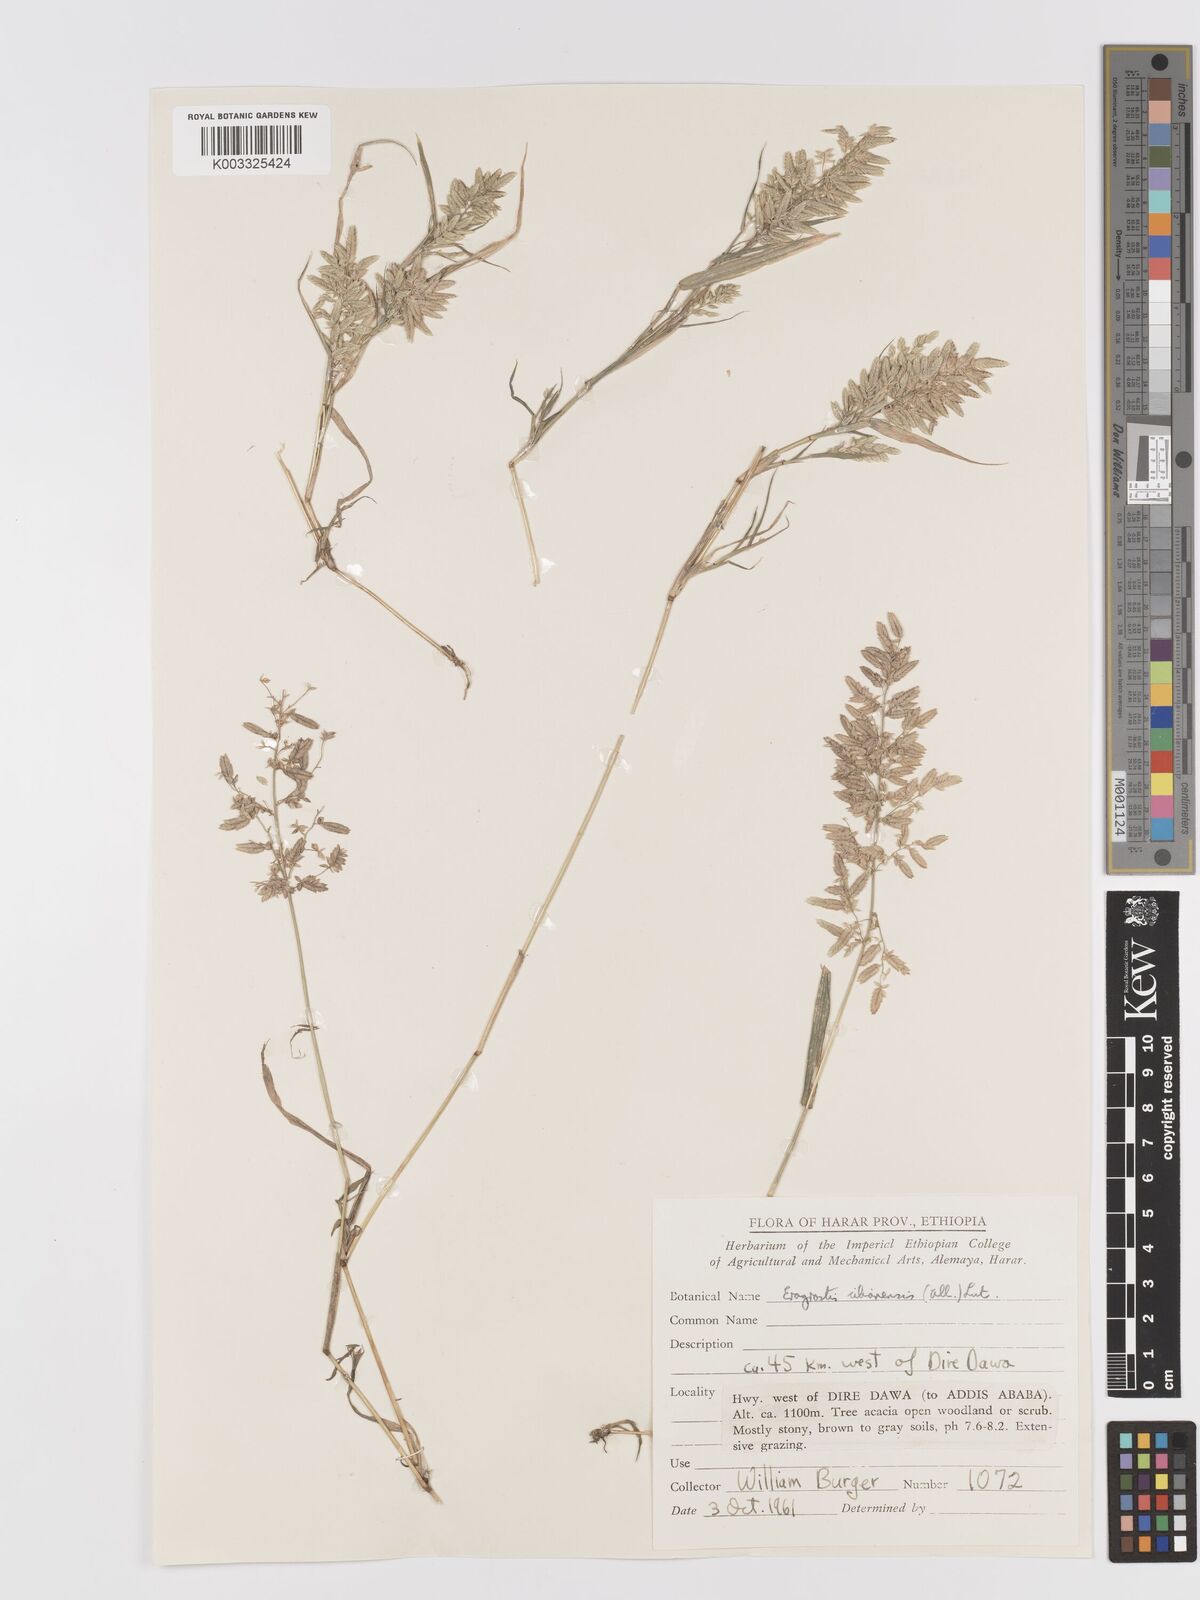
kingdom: Plantae
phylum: Tracheophyta
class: Liliopsida
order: Poales
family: Poaceae
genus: Eragrostis
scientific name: Eragrostis cilianensis
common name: Stinkgrass
